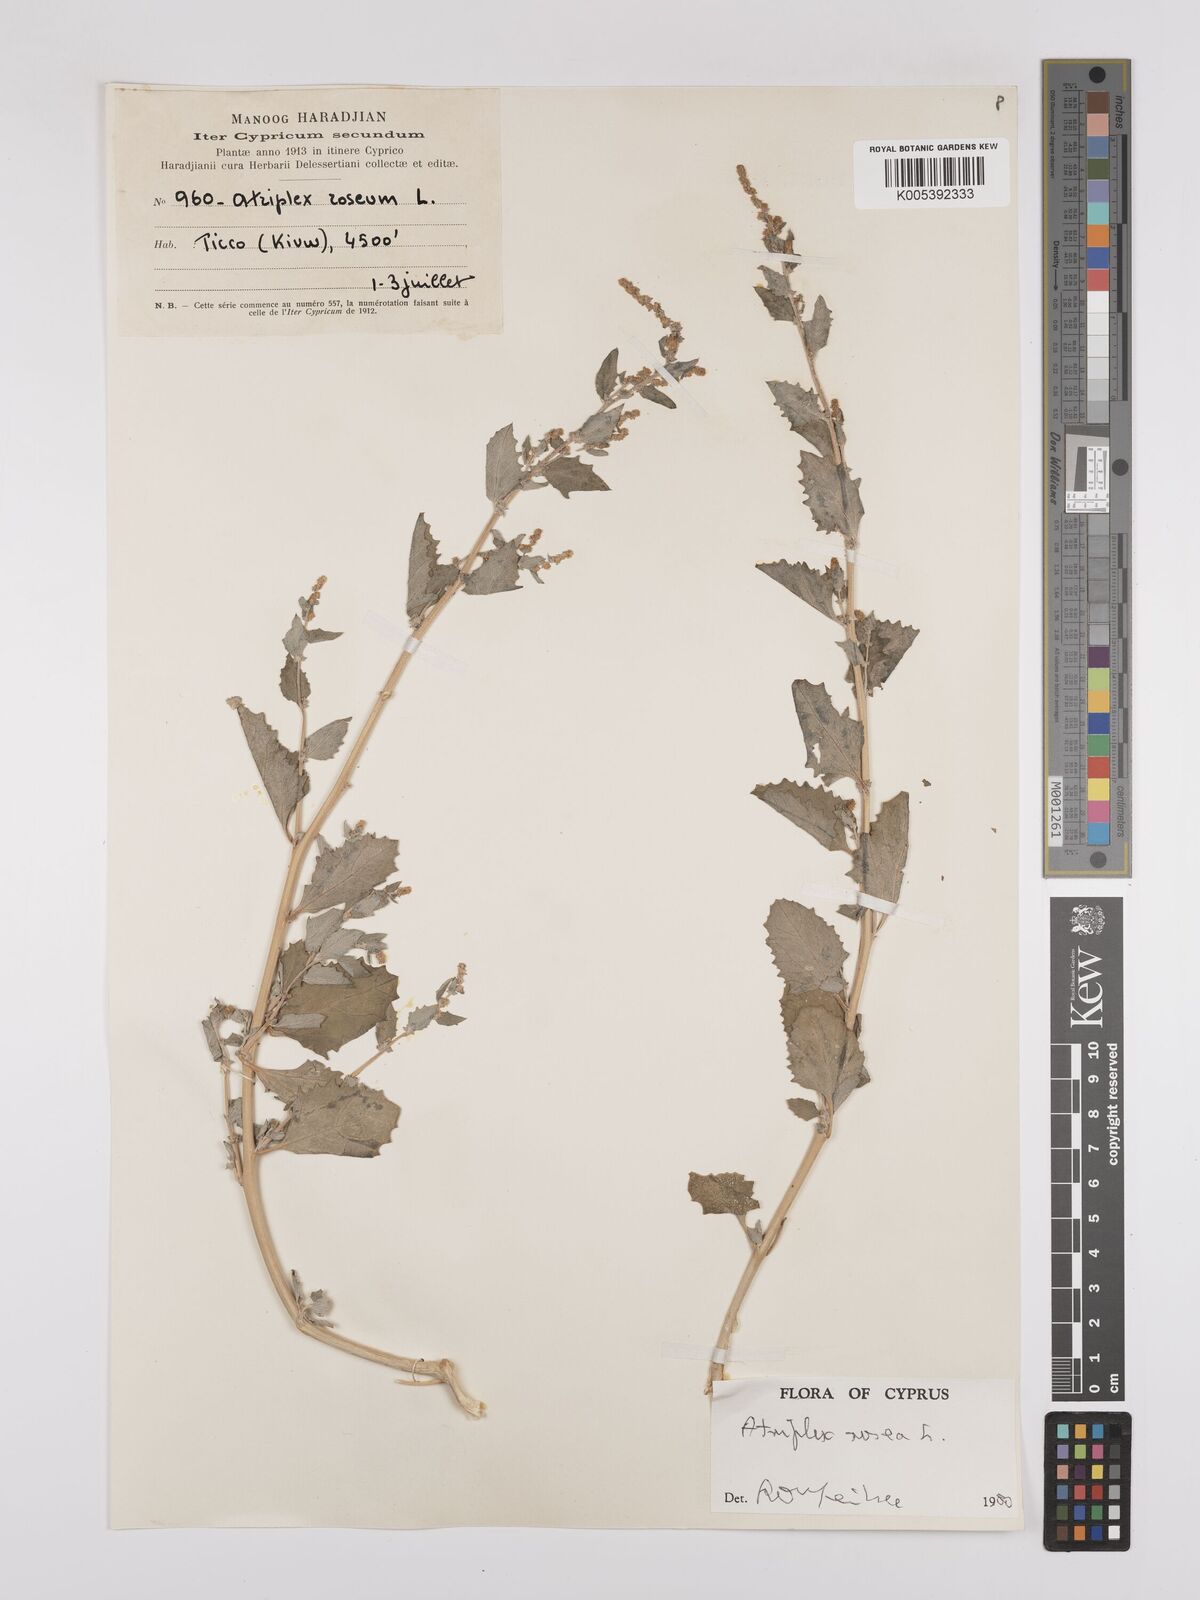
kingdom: Plantae
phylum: Tracheophyta
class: Magnoliopsida
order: Caryophyllales
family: Amaranthaceae
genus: Atriplex
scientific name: Atriplex
